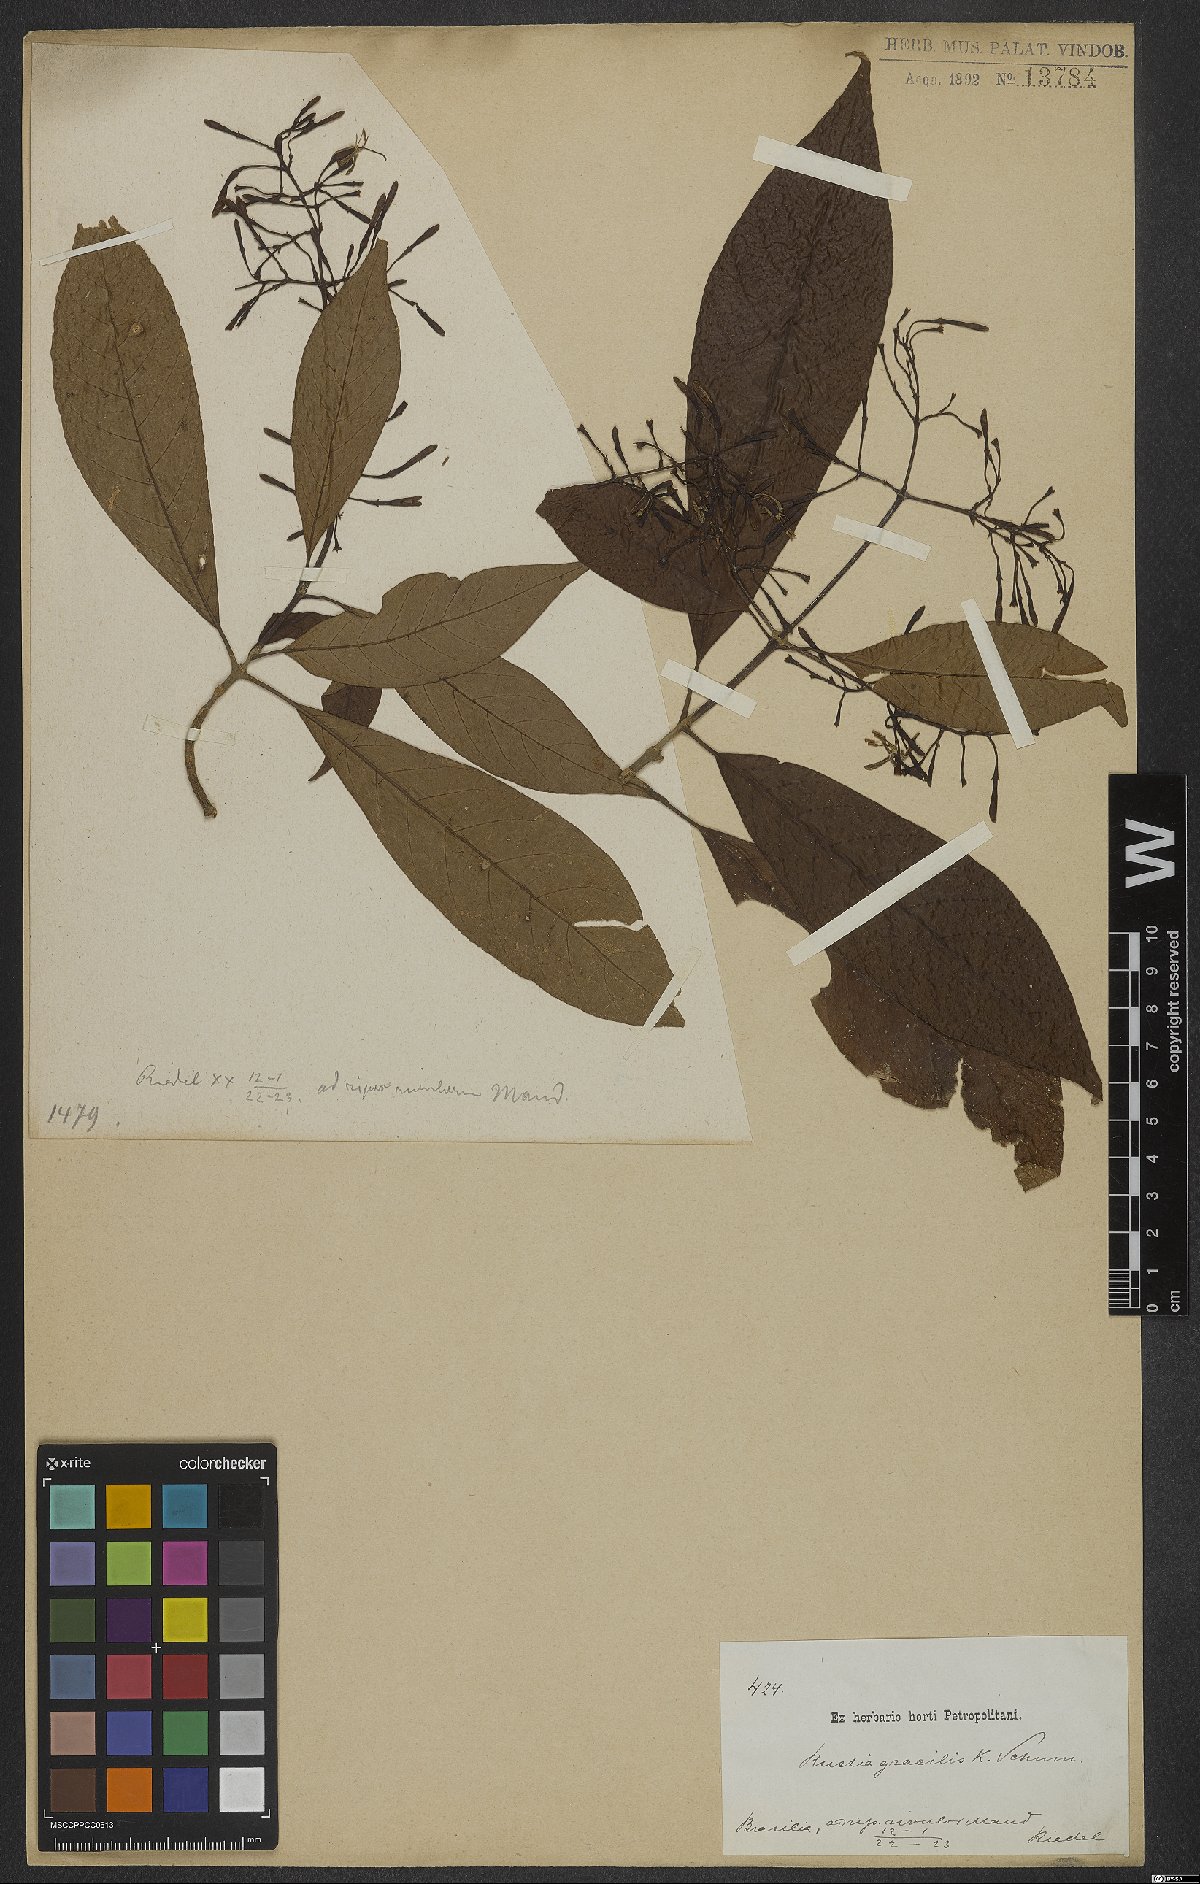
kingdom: Plantae
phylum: Tracheophyta
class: Magnoliopsida
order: Gentianales
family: Rubiaceae
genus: Rustia
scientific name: Rustia gracilis
